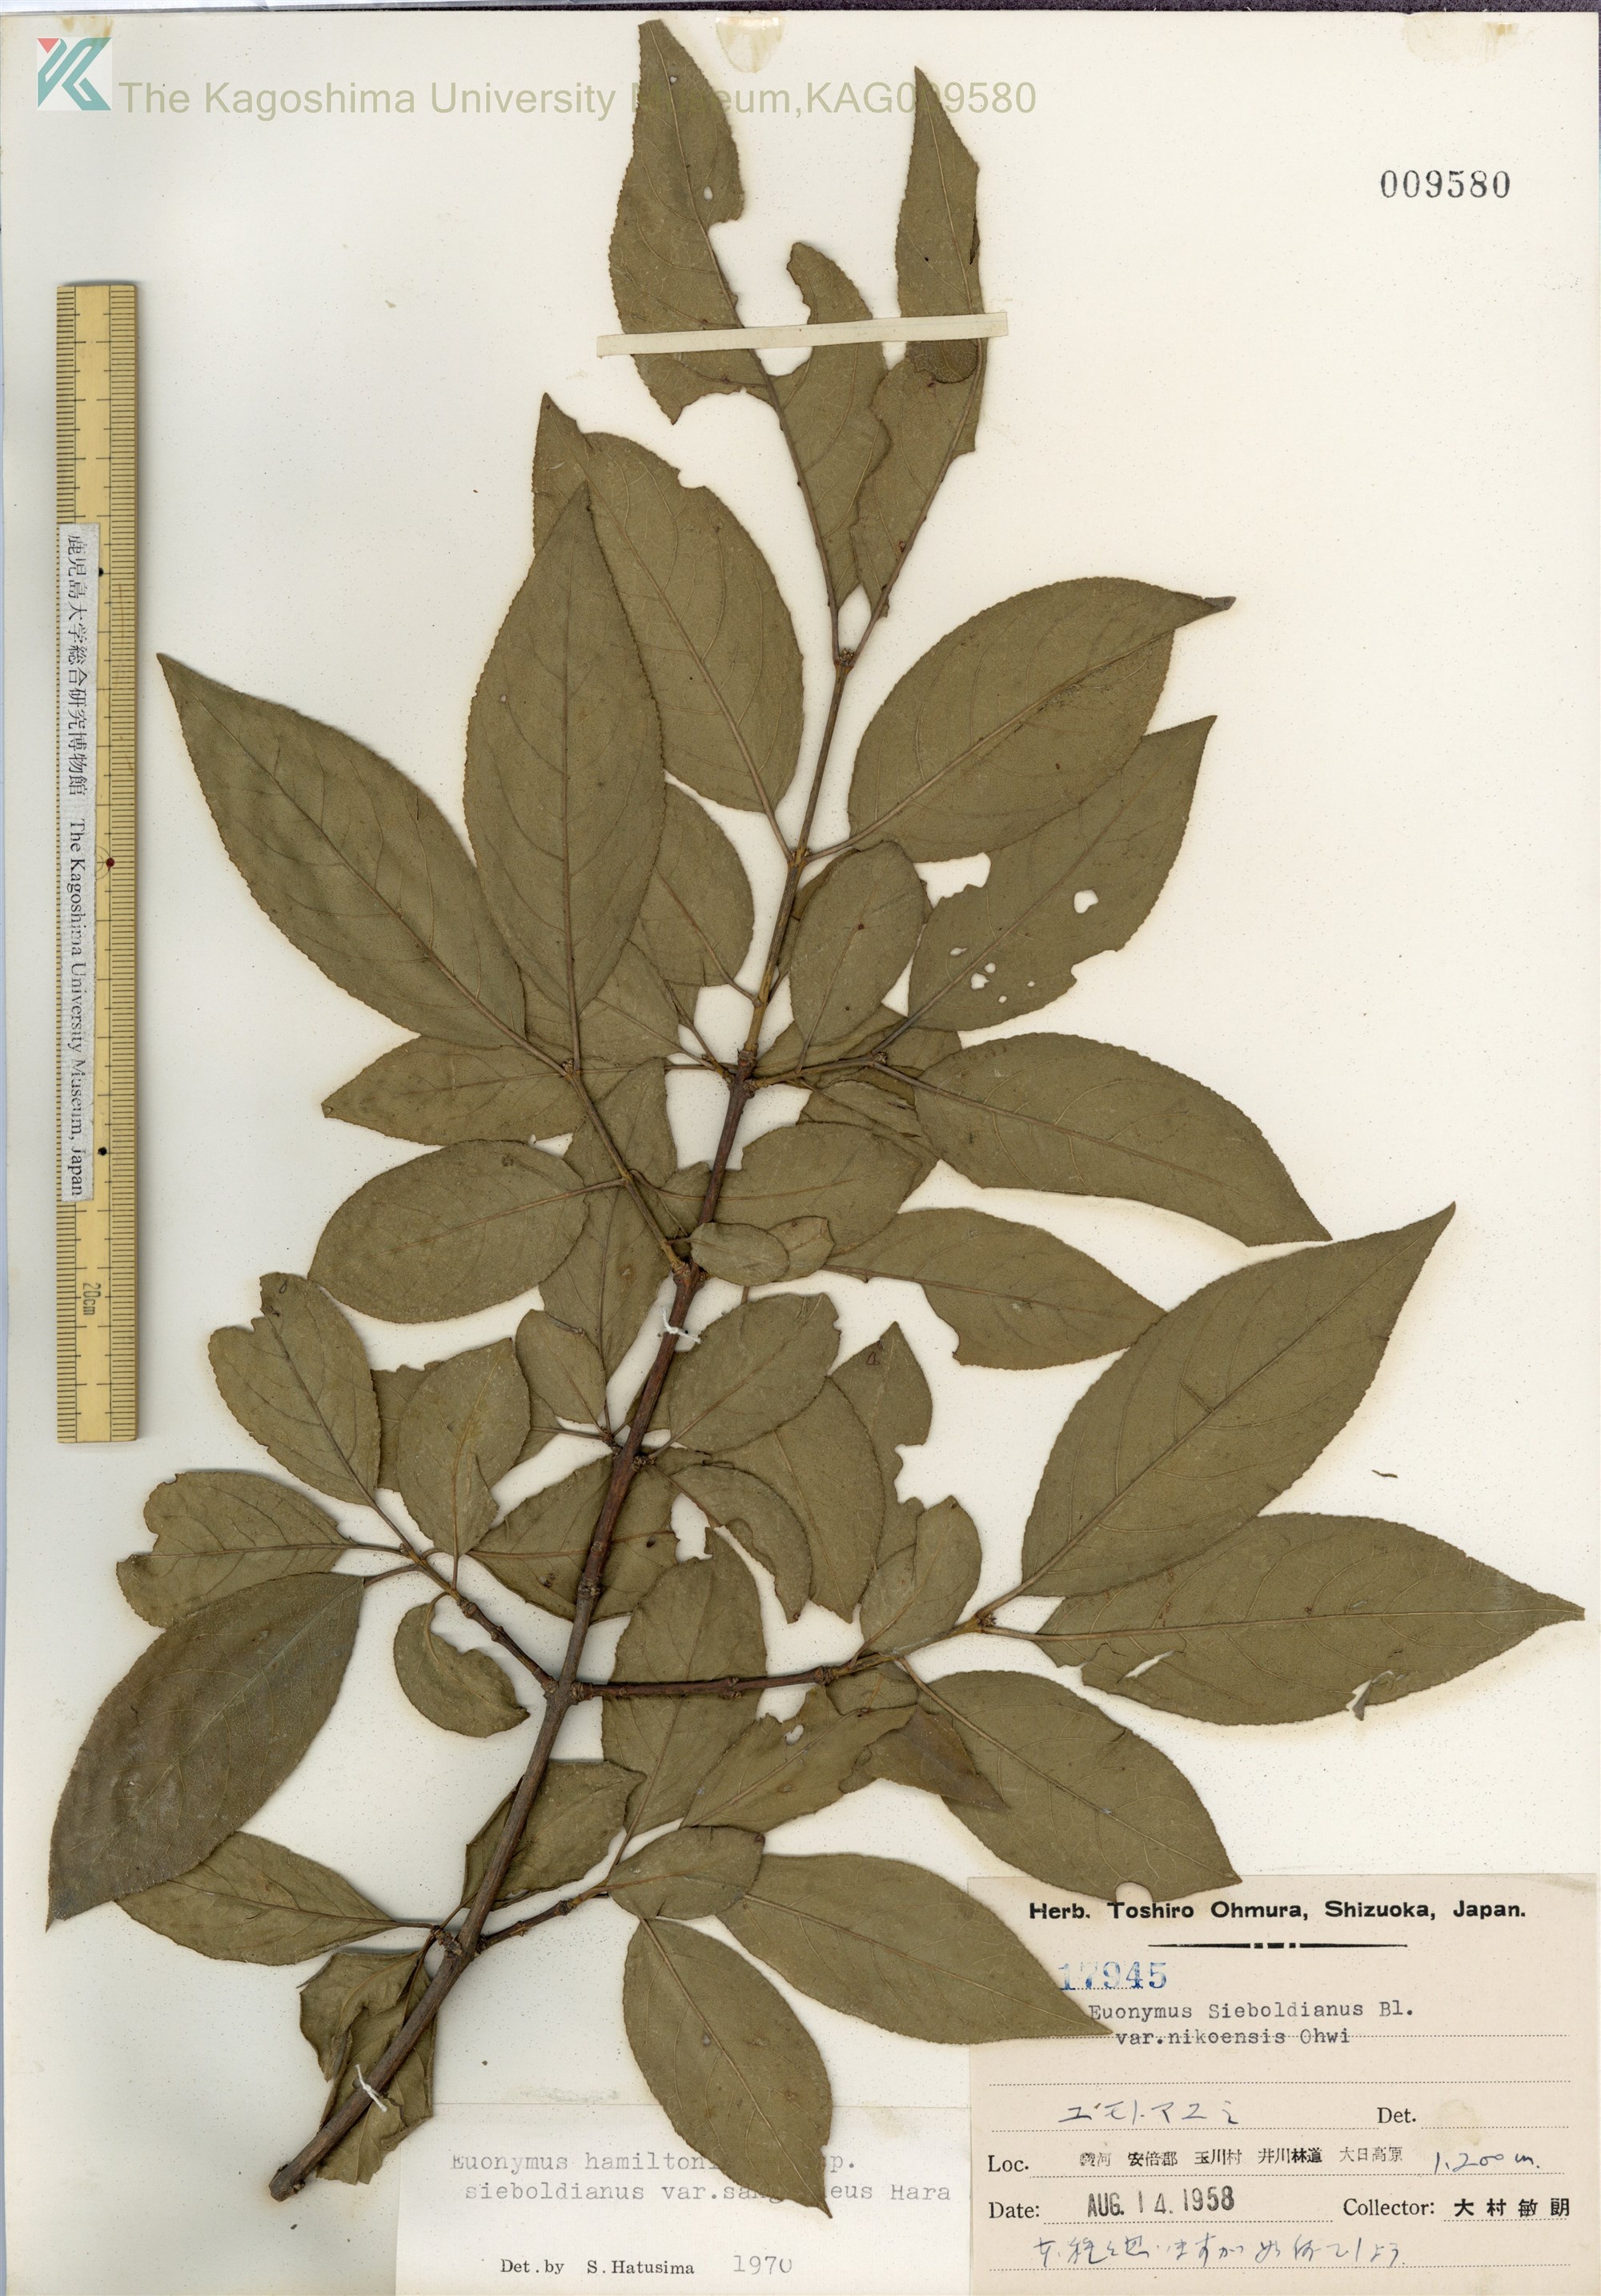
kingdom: Plantae
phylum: Tracheophyta
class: Magnoliopsida
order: Celastrales
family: Celastraceae
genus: Euonymus
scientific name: Euonymus hamiltonianus
